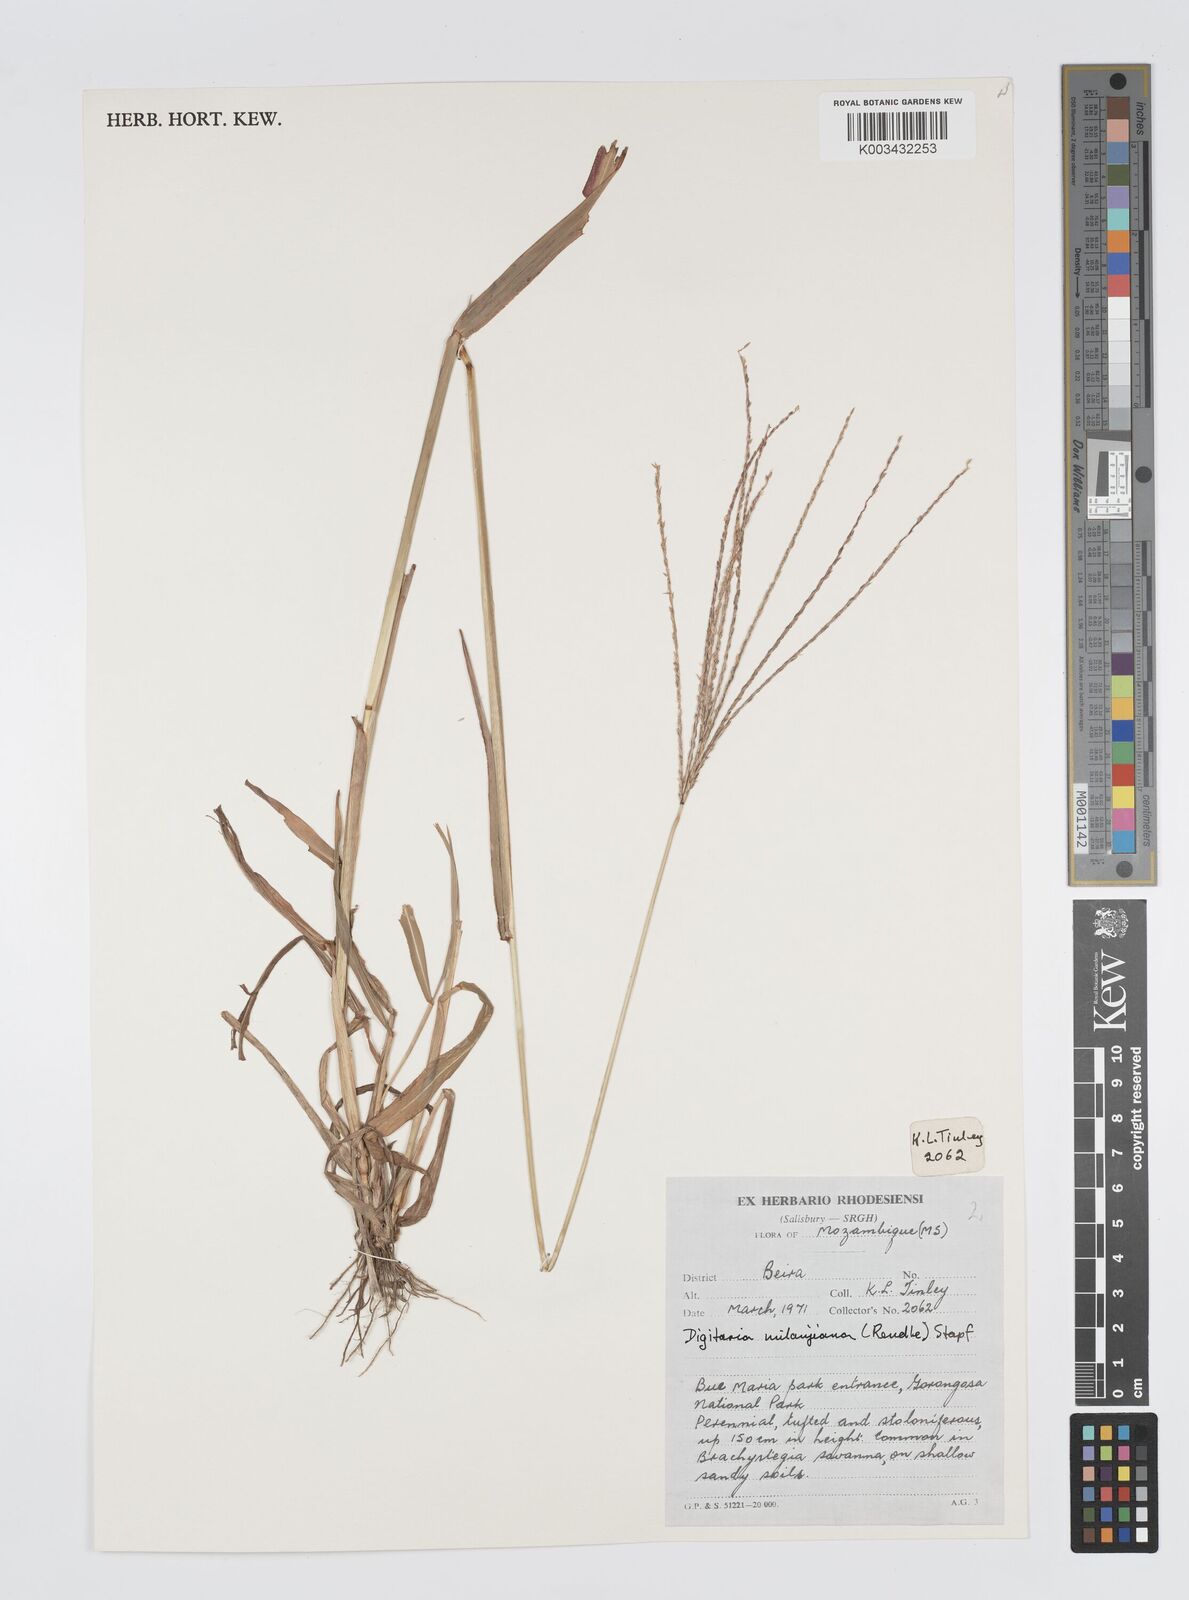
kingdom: Plantae
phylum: Tracheophyta
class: Liliopsida
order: Poales
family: Poaceae
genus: Digitaria
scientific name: Digitaria milanjiana
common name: Madagascar crabgrass
